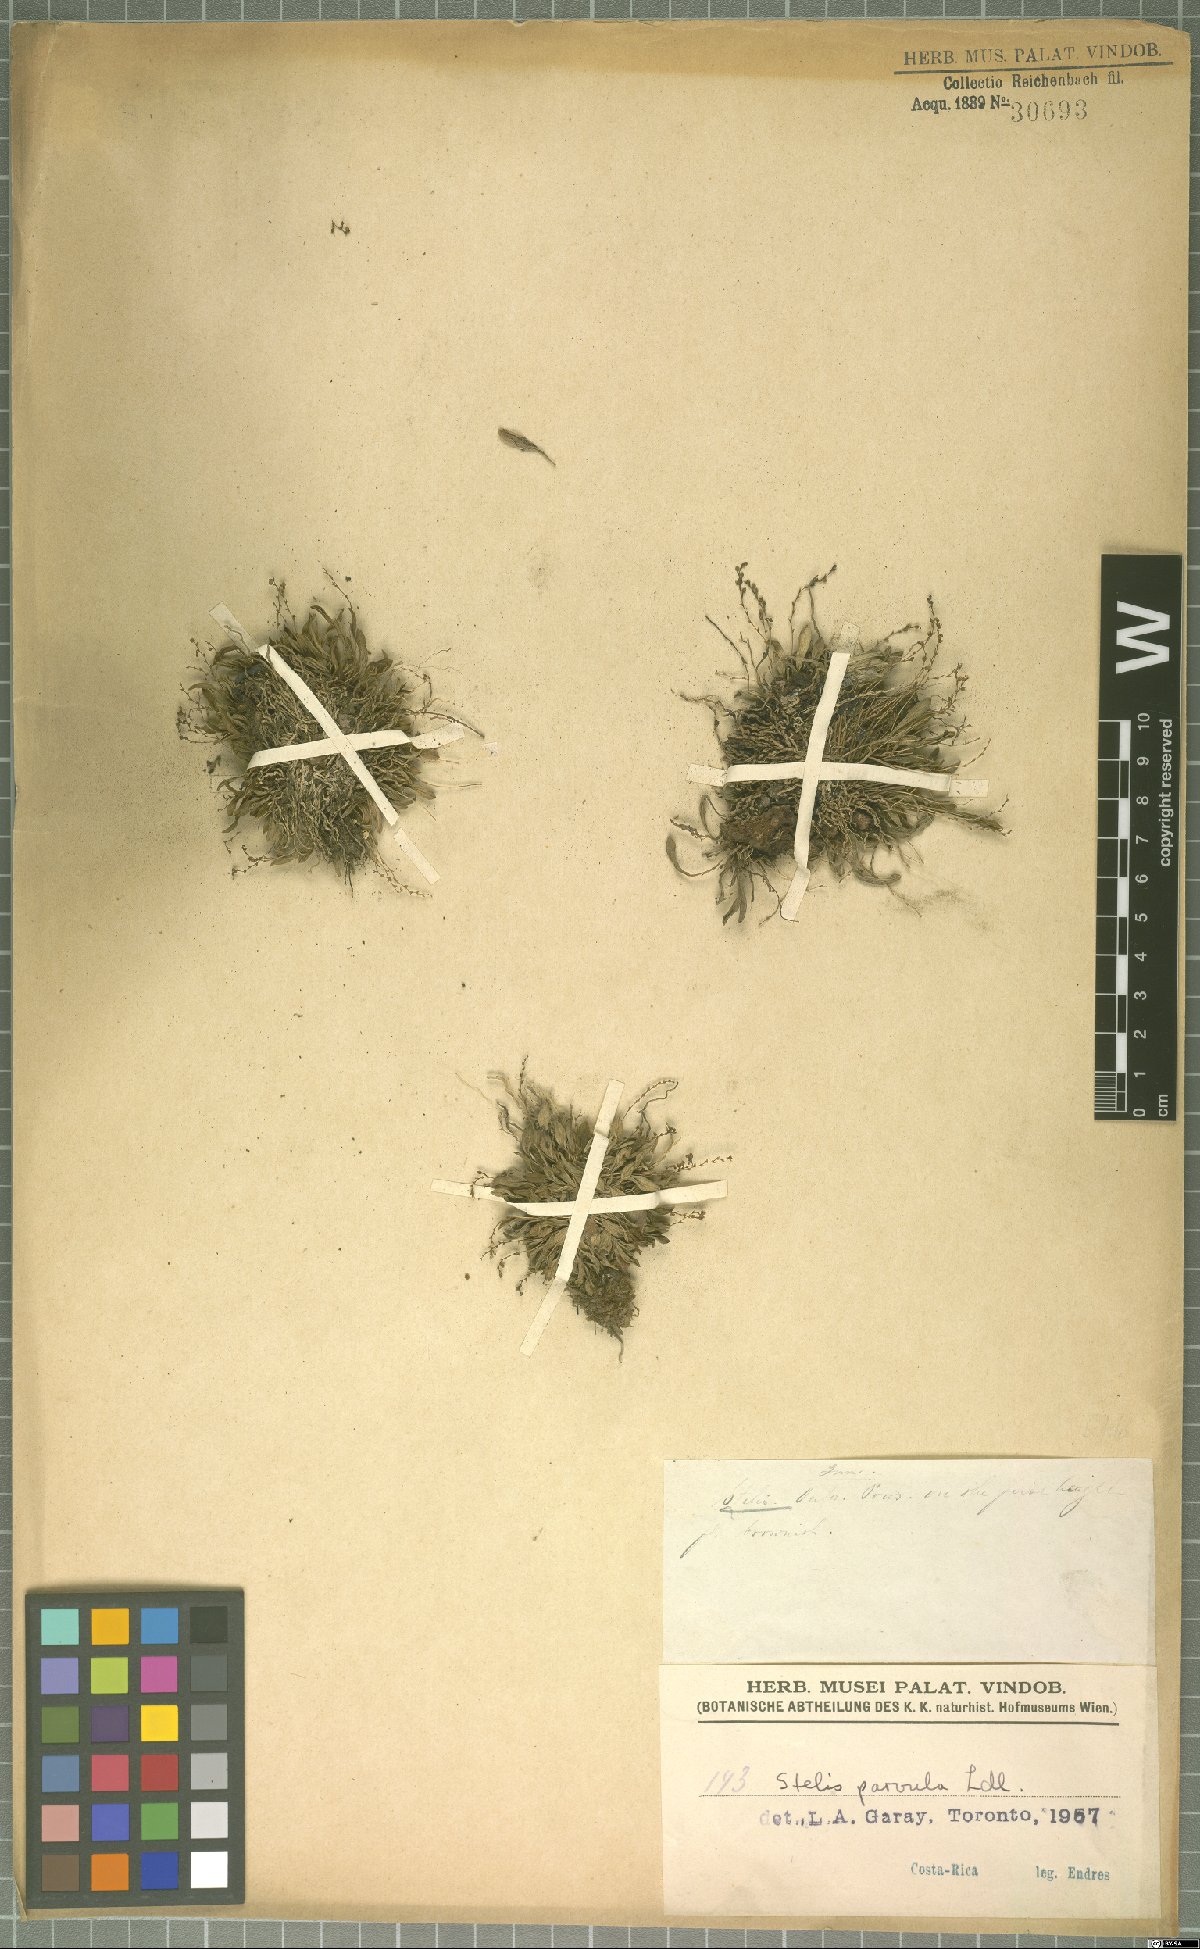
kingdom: Plantae
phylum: Tracheophyta
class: Liliopsida
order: Asparagales
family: Orchidaceae
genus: Stelis
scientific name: Stelis parvula
